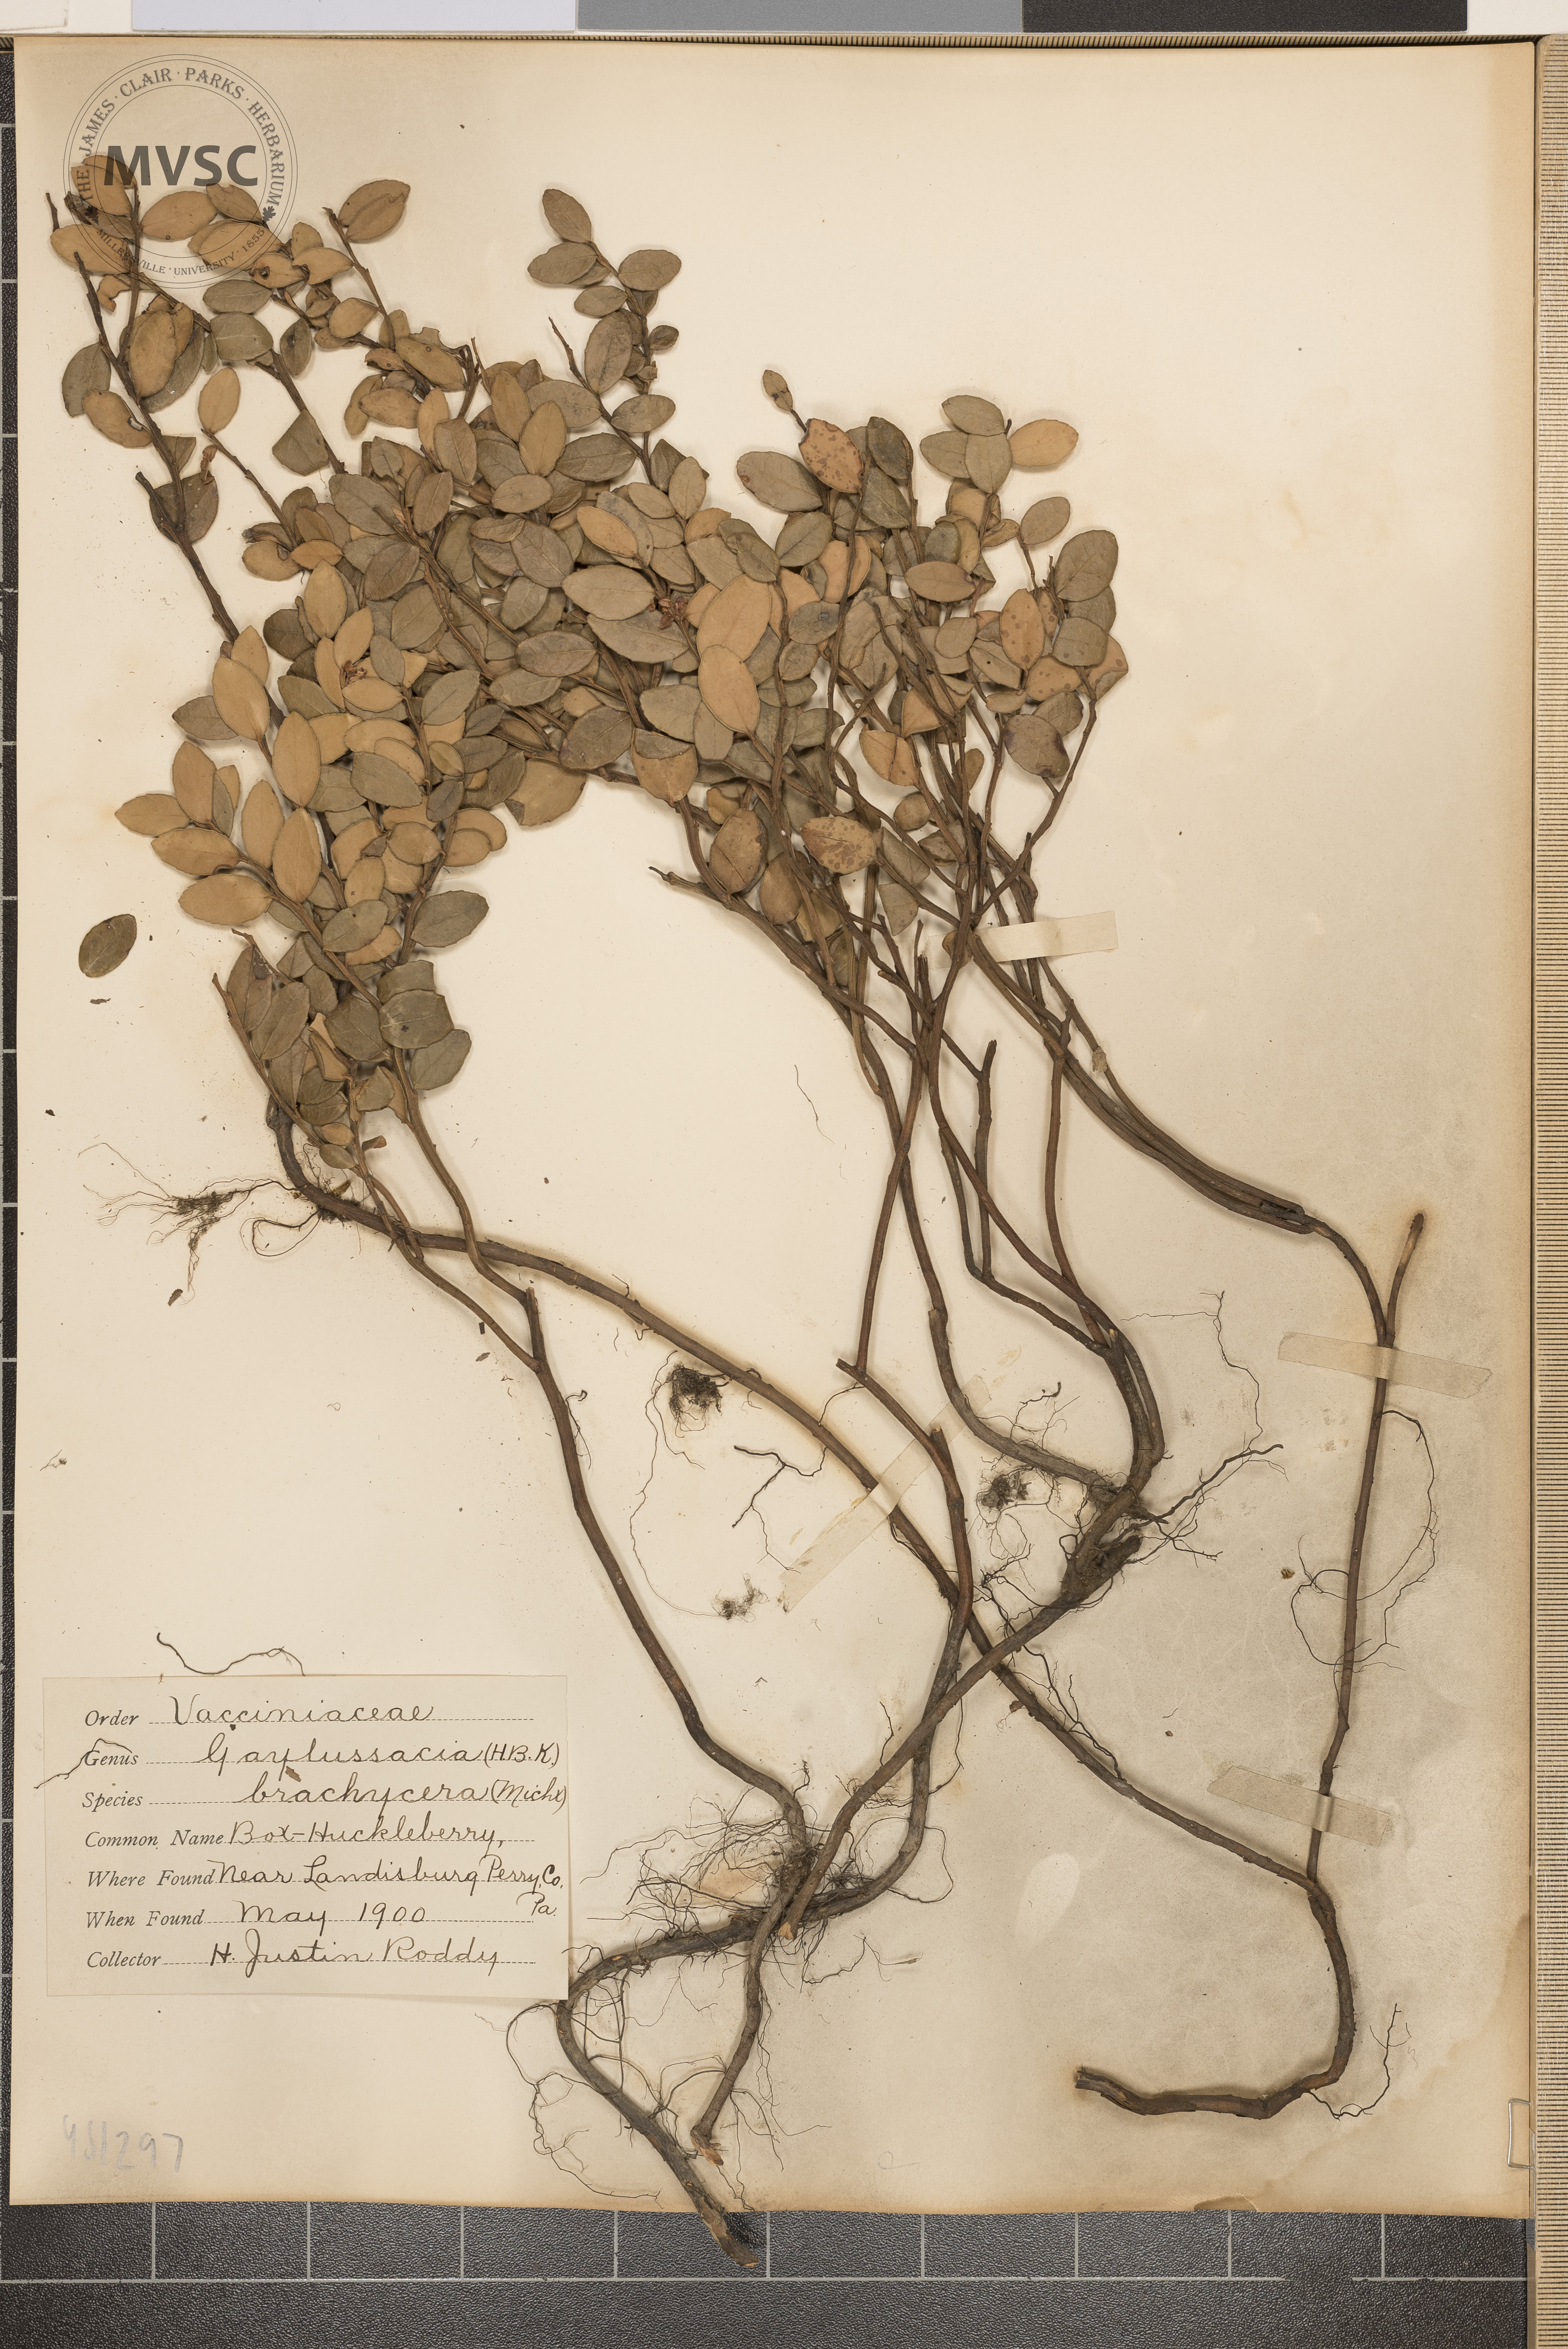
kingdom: Plantae
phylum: Tracheophyta
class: Magnoliopsida
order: Ericales
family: Ericaceae
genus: Gaylussacia
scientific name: Gaylussacia brachycera
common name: Box Huckleberry
